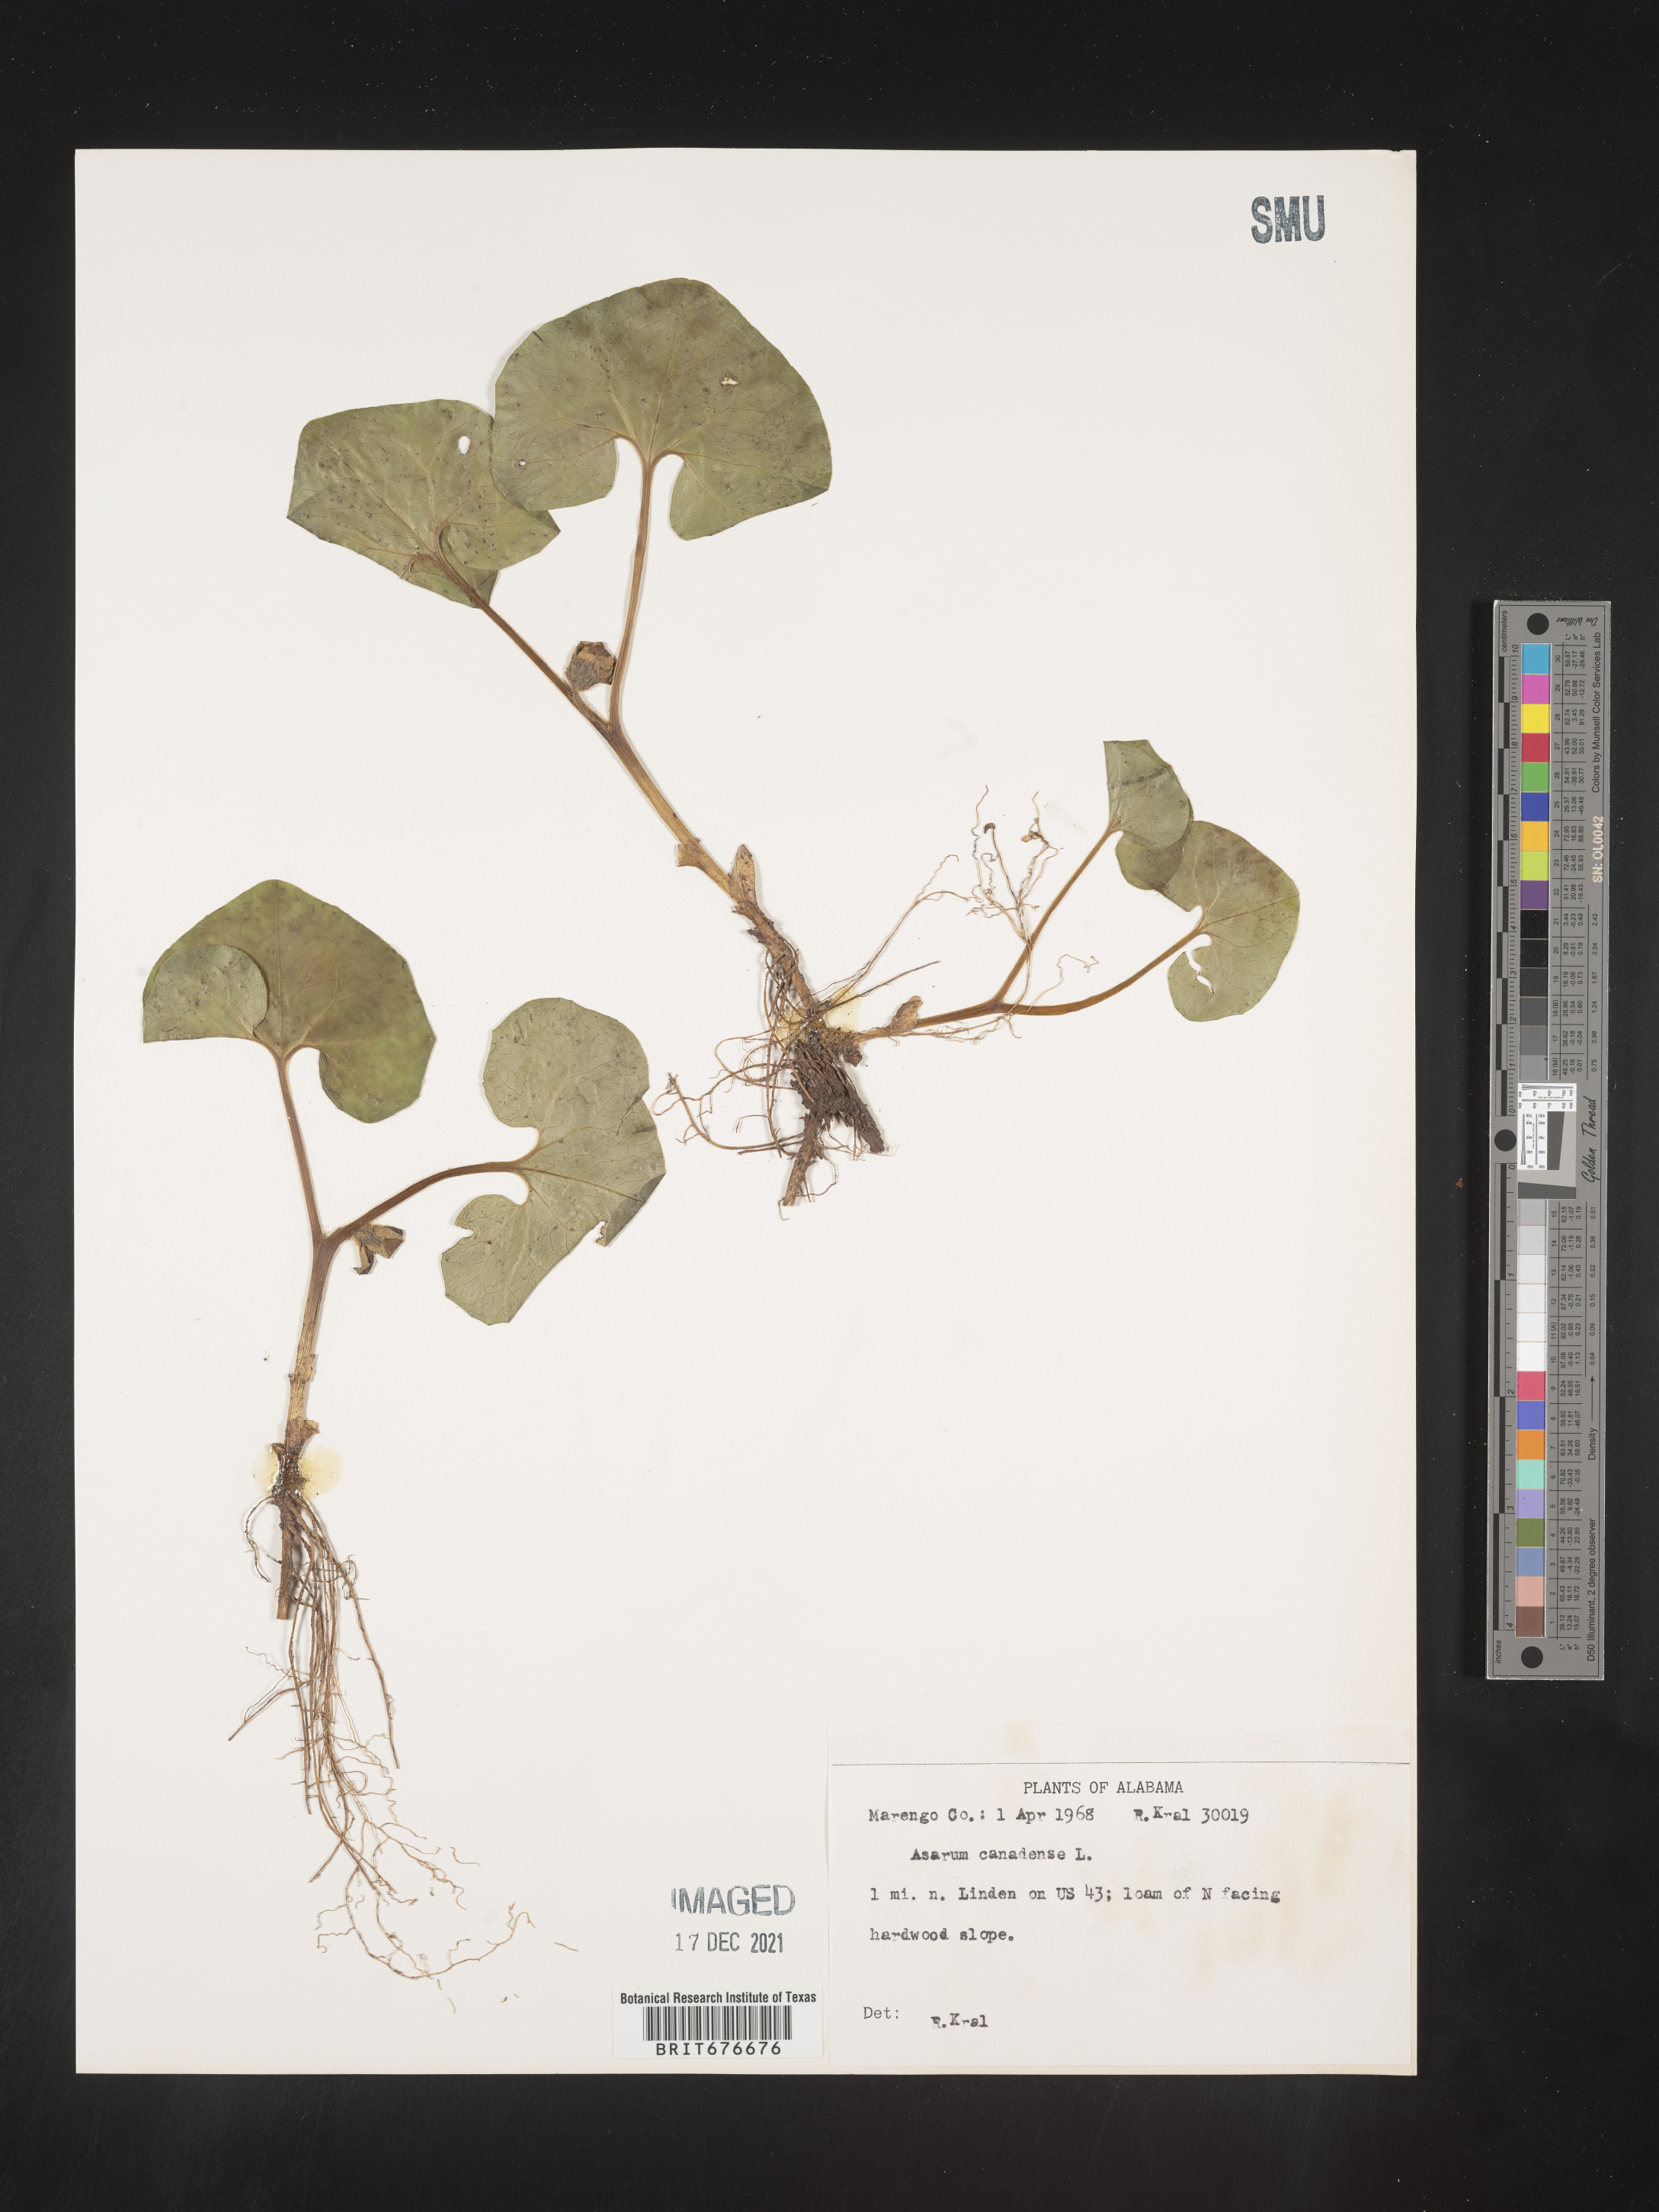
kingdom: Plantae
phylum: Tracheophyta
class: Magnoliopsida
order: Piperales
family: Aristolochiaceae
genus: Asarum
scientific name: Asarum canadense
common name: Wild ginger
